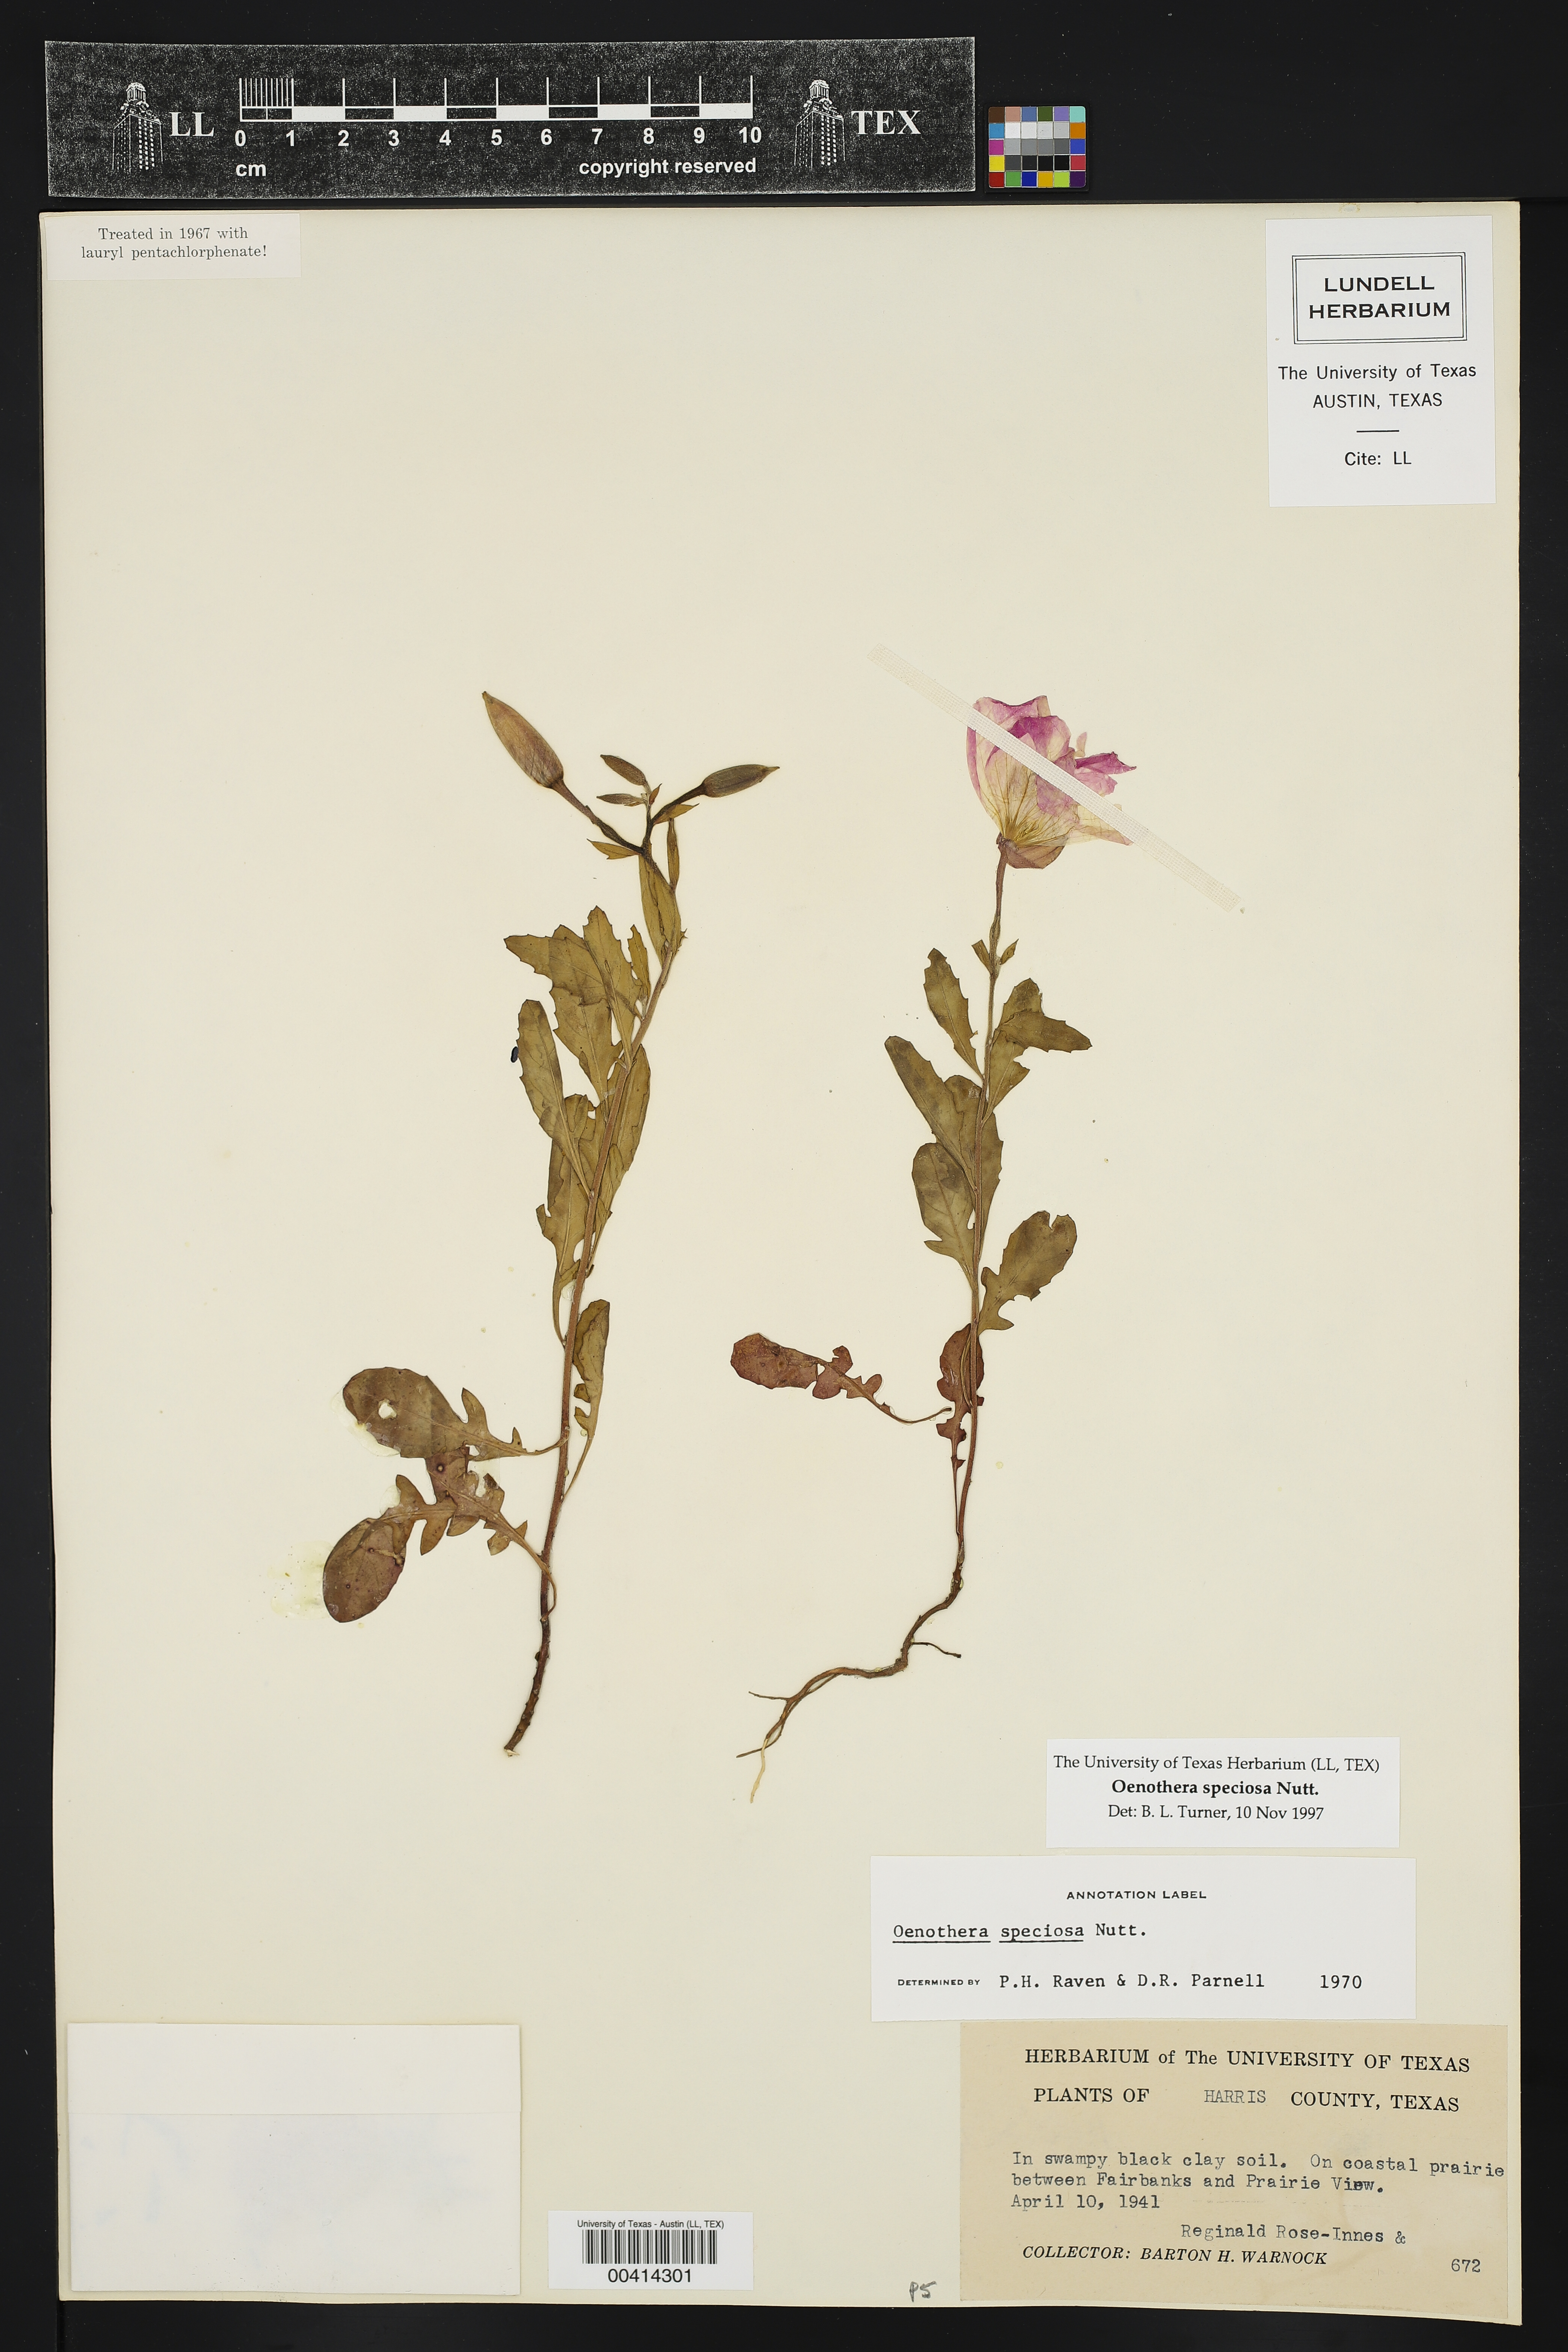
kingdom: Plantae
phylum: Tracheophyta
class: Magnoliopsida
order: Myrtales
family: Onagraceae
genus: Oenothera
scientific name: Oenothera speciosa
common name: White evening-primrose
